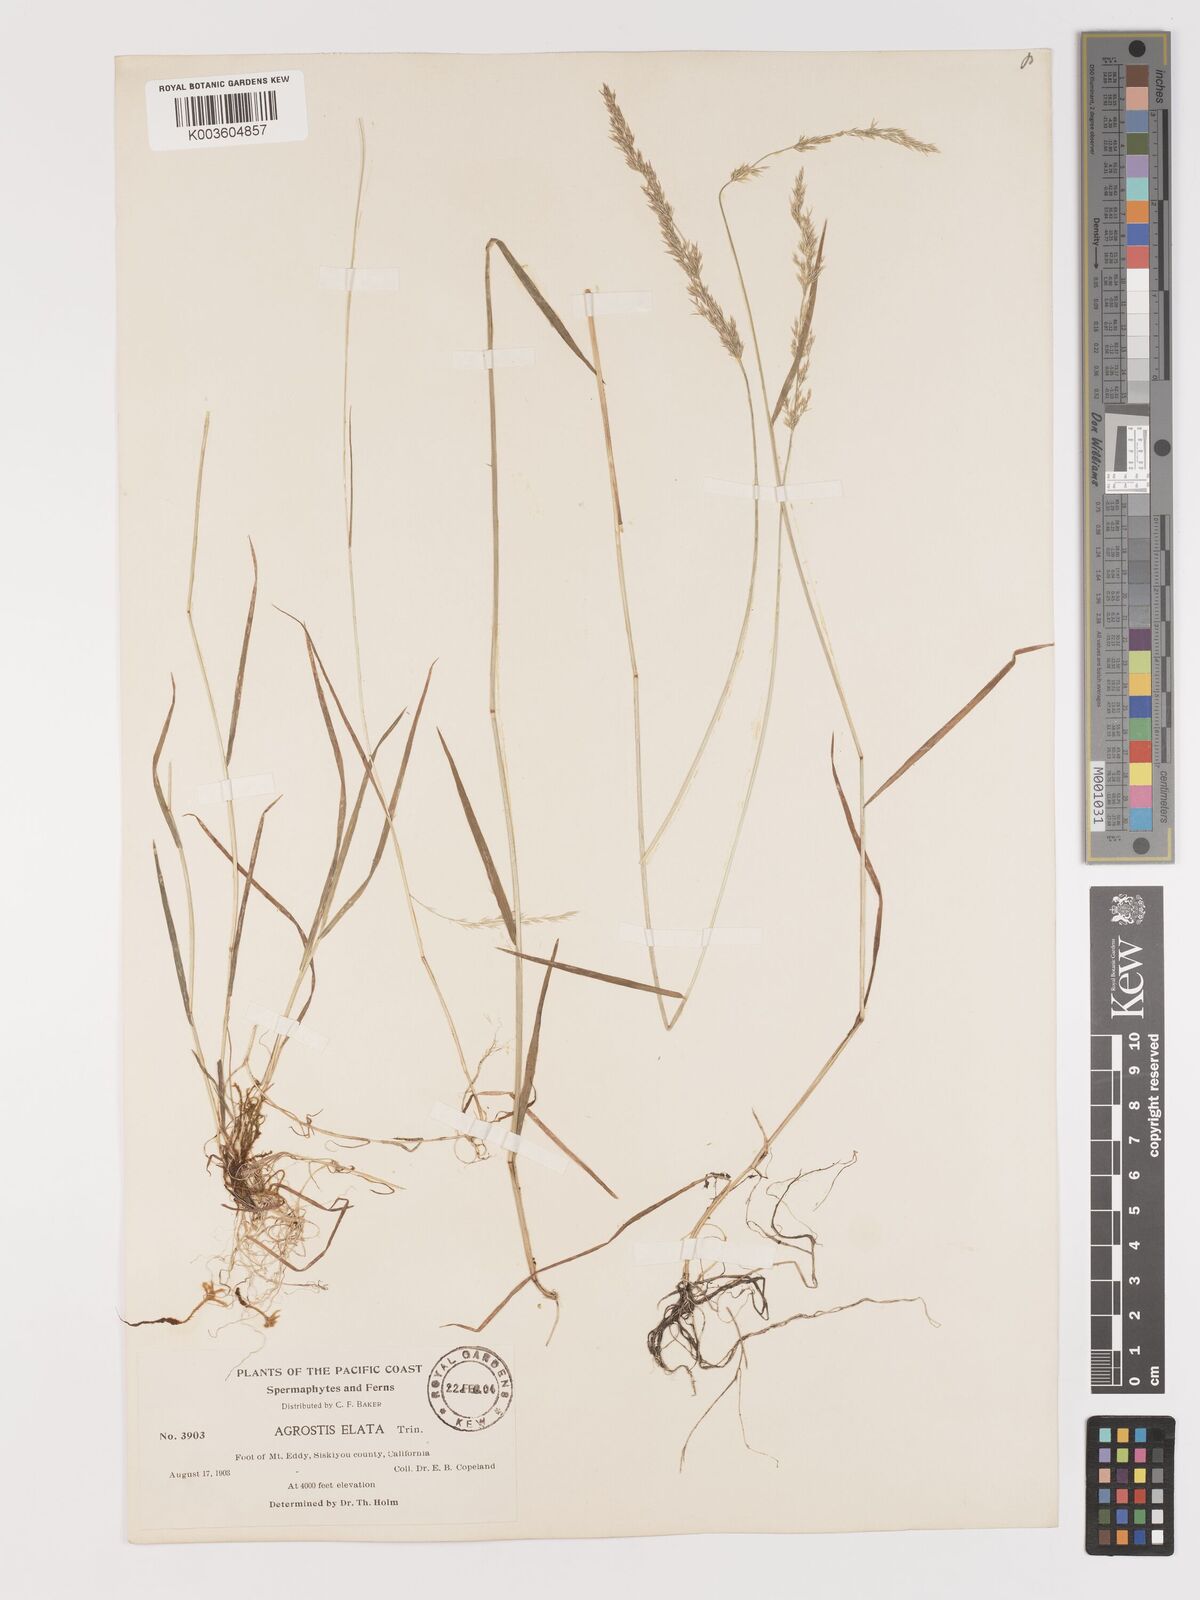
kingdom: Plantae
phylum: Tracheophyta
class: Liliopsida
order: Poales
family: Poaceae
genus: Agrostis
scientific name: Agrostis
